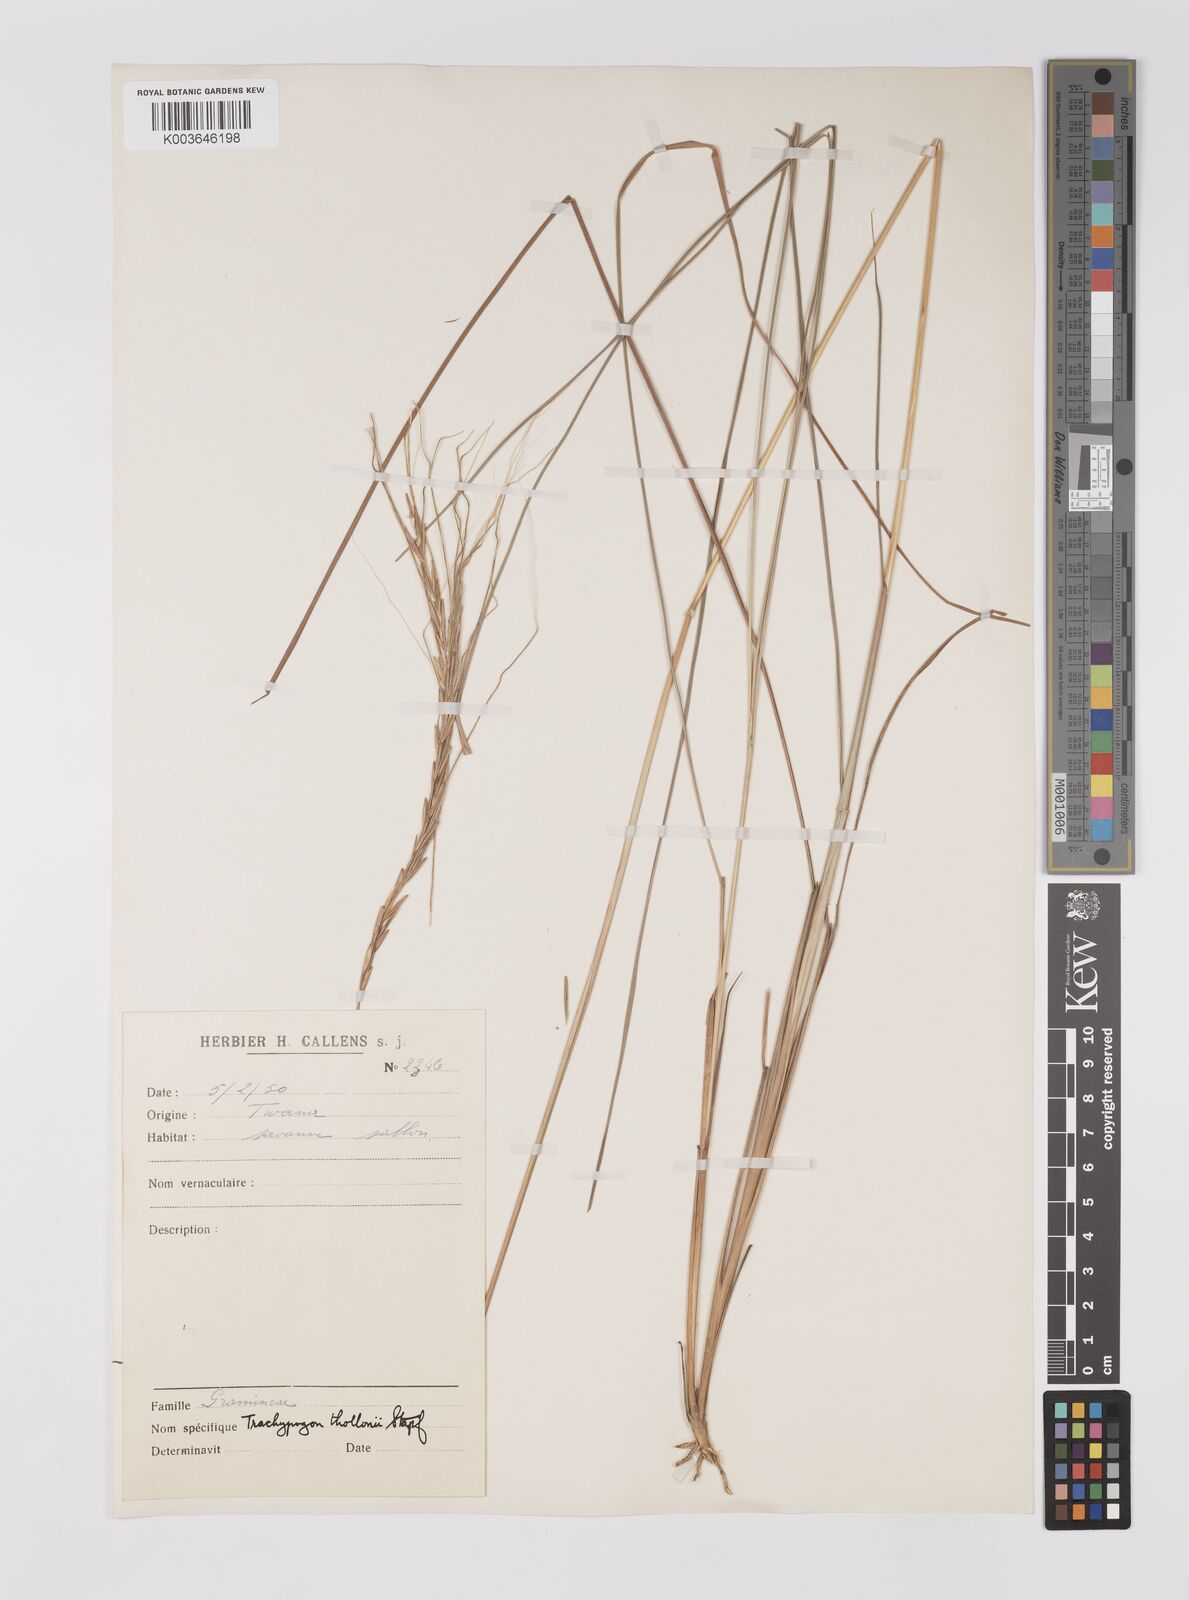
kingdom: Plantae
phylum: Tracheophyta
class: Liliopsida
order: Poales
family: Poaceae
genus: Trachypogon
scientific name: Trachypogon spicatus
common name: Crinkle-awn
